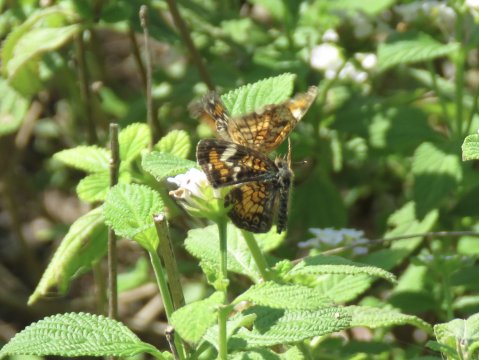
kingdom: Animalia
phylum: Arthropoda
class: Insecta
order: Lepidoptera
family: Nymphalidae
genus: Phyciodes
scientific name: Phyciodes phaon
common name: Phaon Crescent
